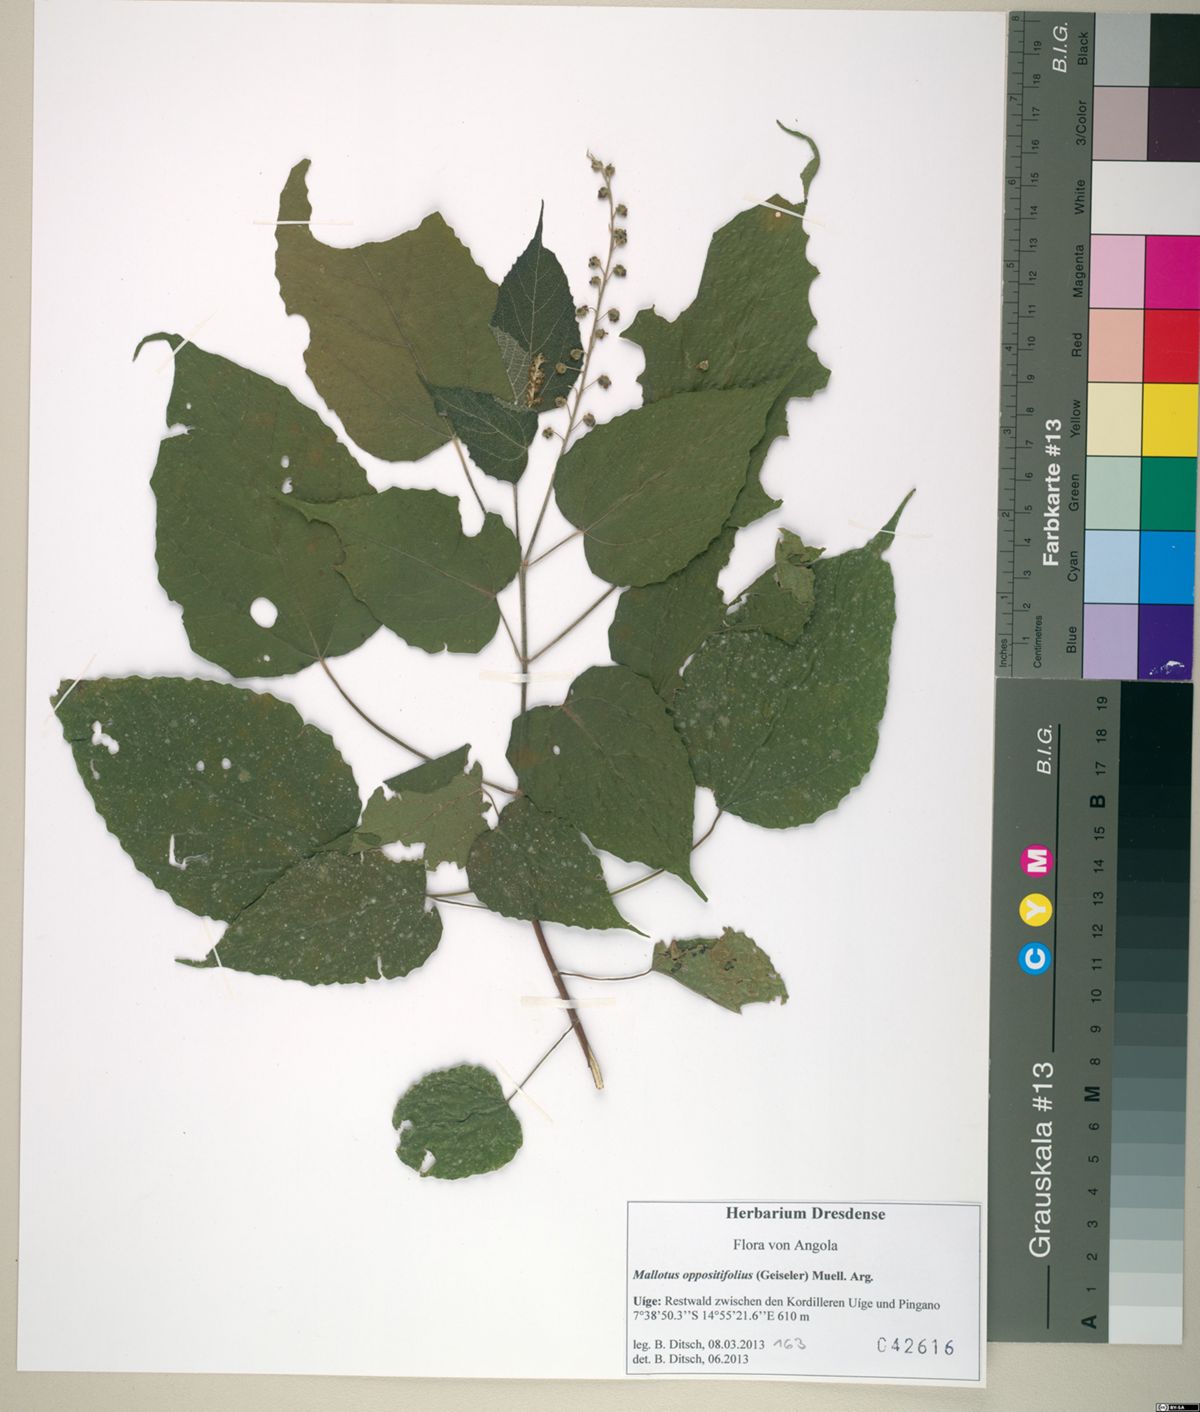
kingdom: Plantae
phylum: Tracheophyta
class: Magnoliopsida
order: Malpighiales
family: Euphorbiaceae
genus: Mallotus
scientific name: Mallotus oppositifolius
